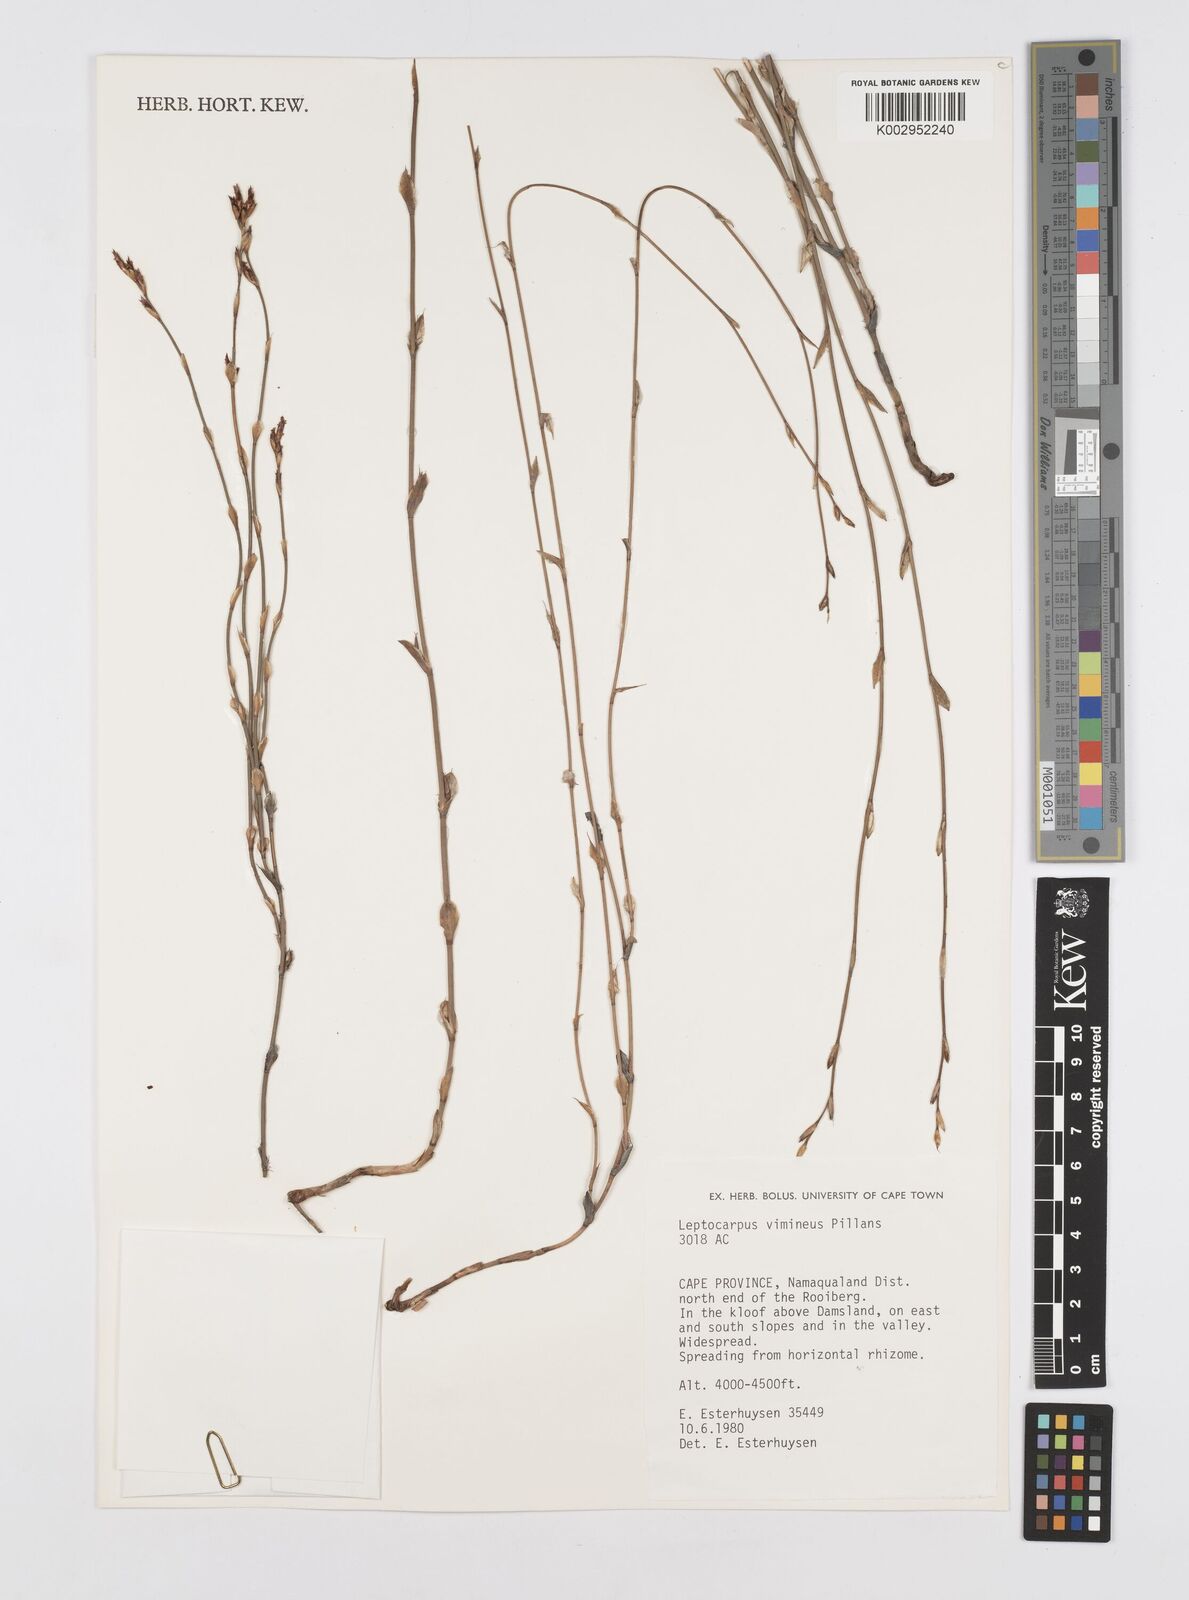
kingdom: Plantae
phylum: Tracheophyta
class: Liliopsida
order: Poales
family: Restionaceae
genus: Restio
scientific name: Restio vimineus
